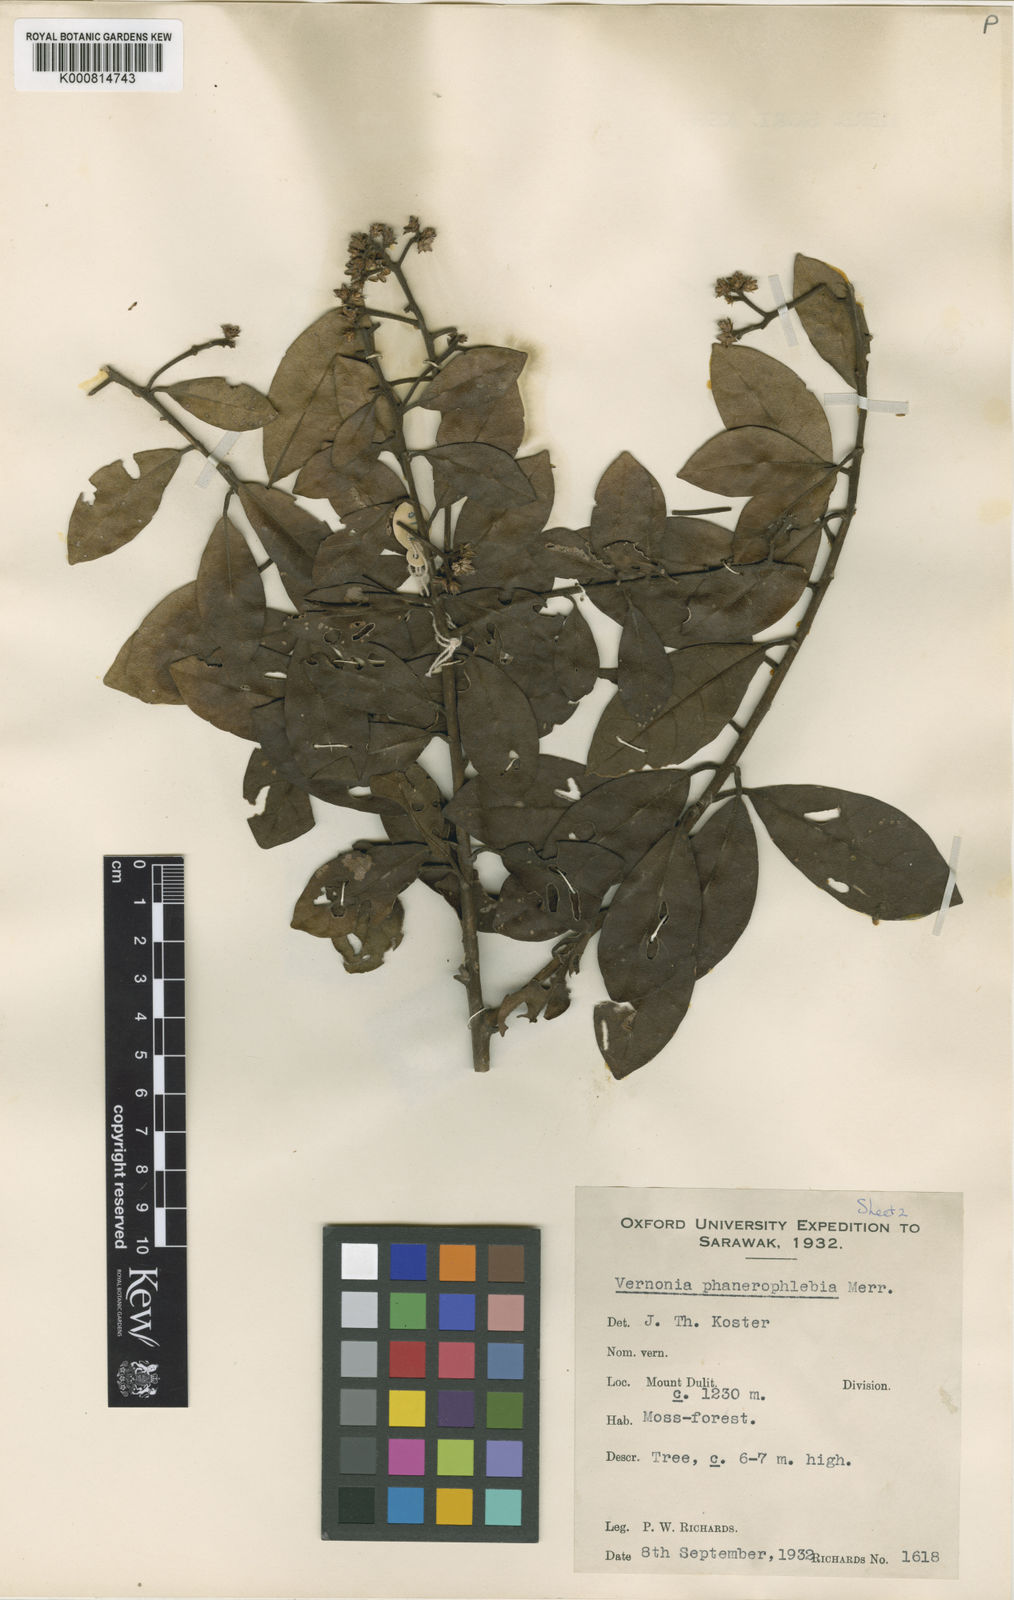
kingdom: Plantae
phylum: Tracheophyta
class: Magnoliopsida
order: Asterales
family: Asteraceae
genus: Strobocalyx
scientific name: Strobocalyx arborea
